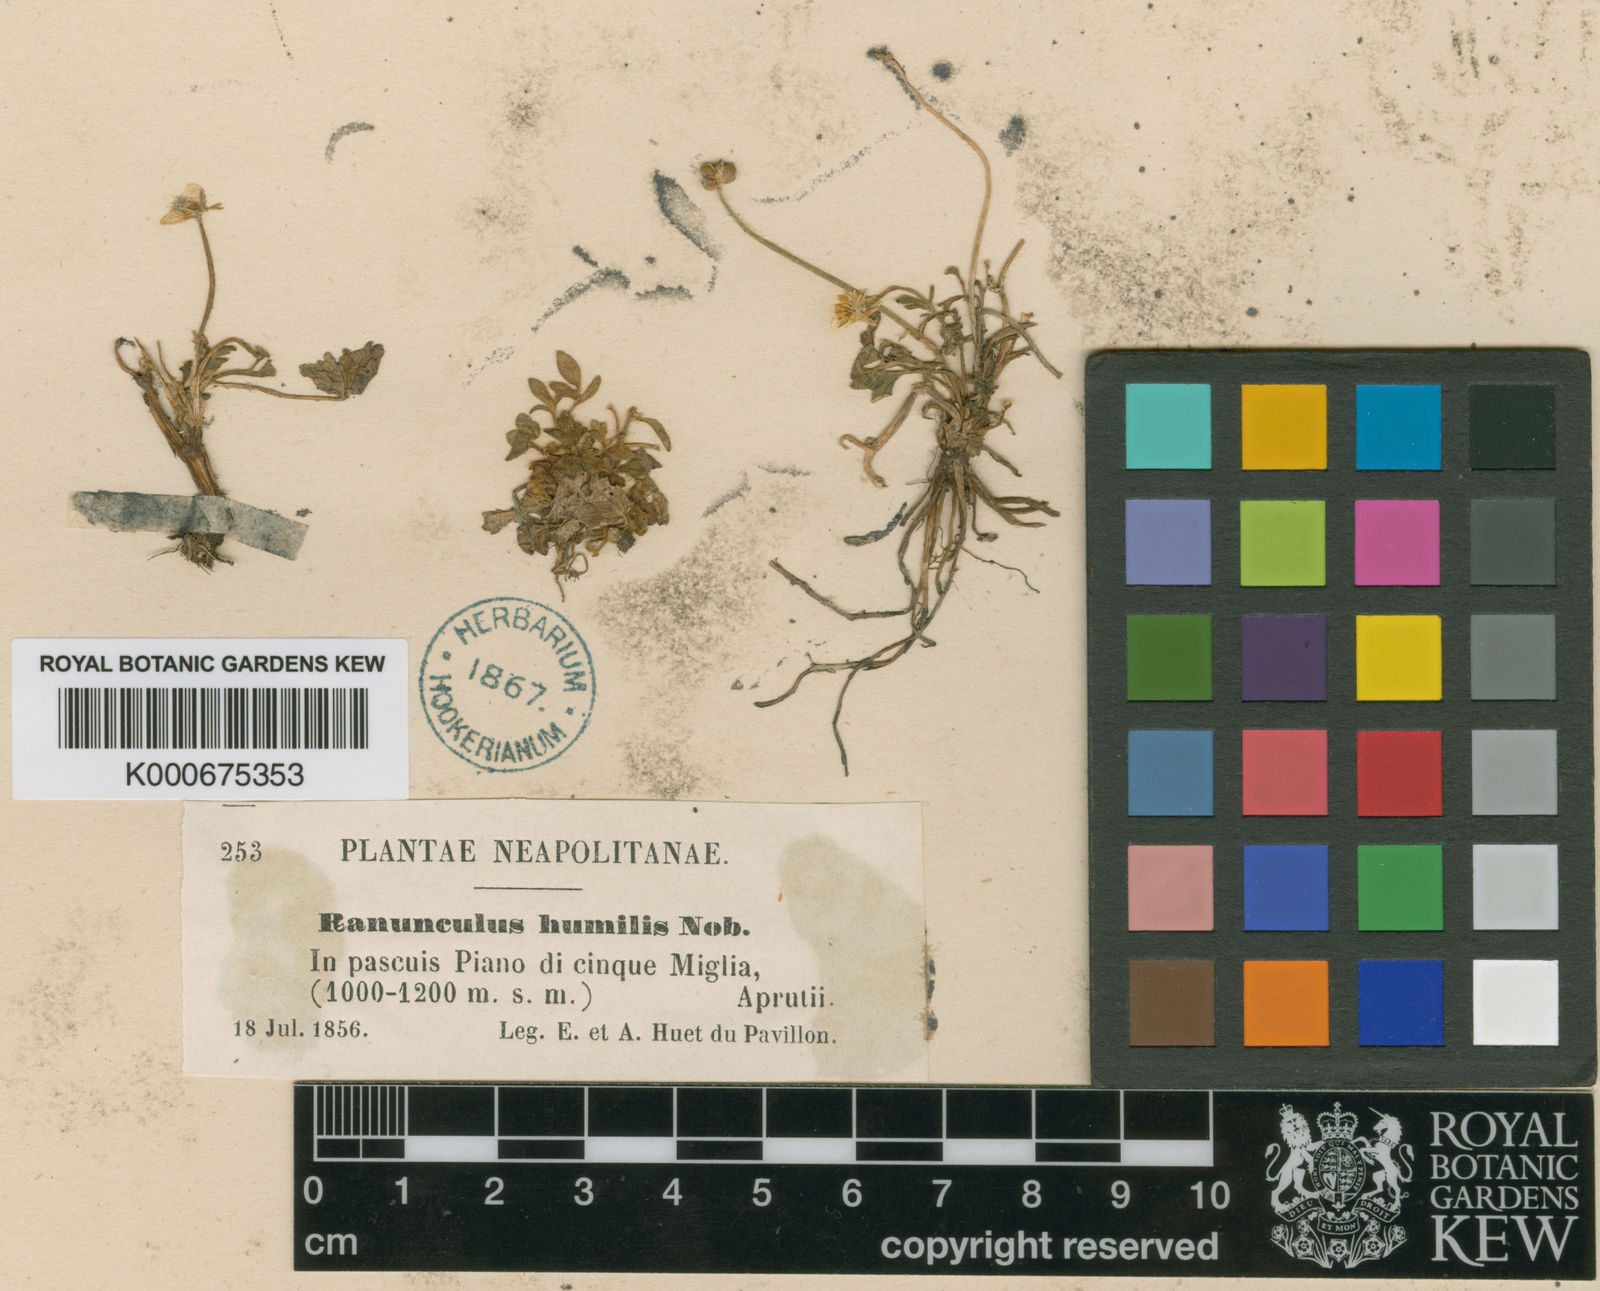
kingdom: Plantae
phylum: Tracheophyta
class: Magnoliopsida
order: Ranunculales
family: Ranunculaceae
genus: Ranunculus
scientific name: Ranunculus sardous
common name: Hairy buttercup
